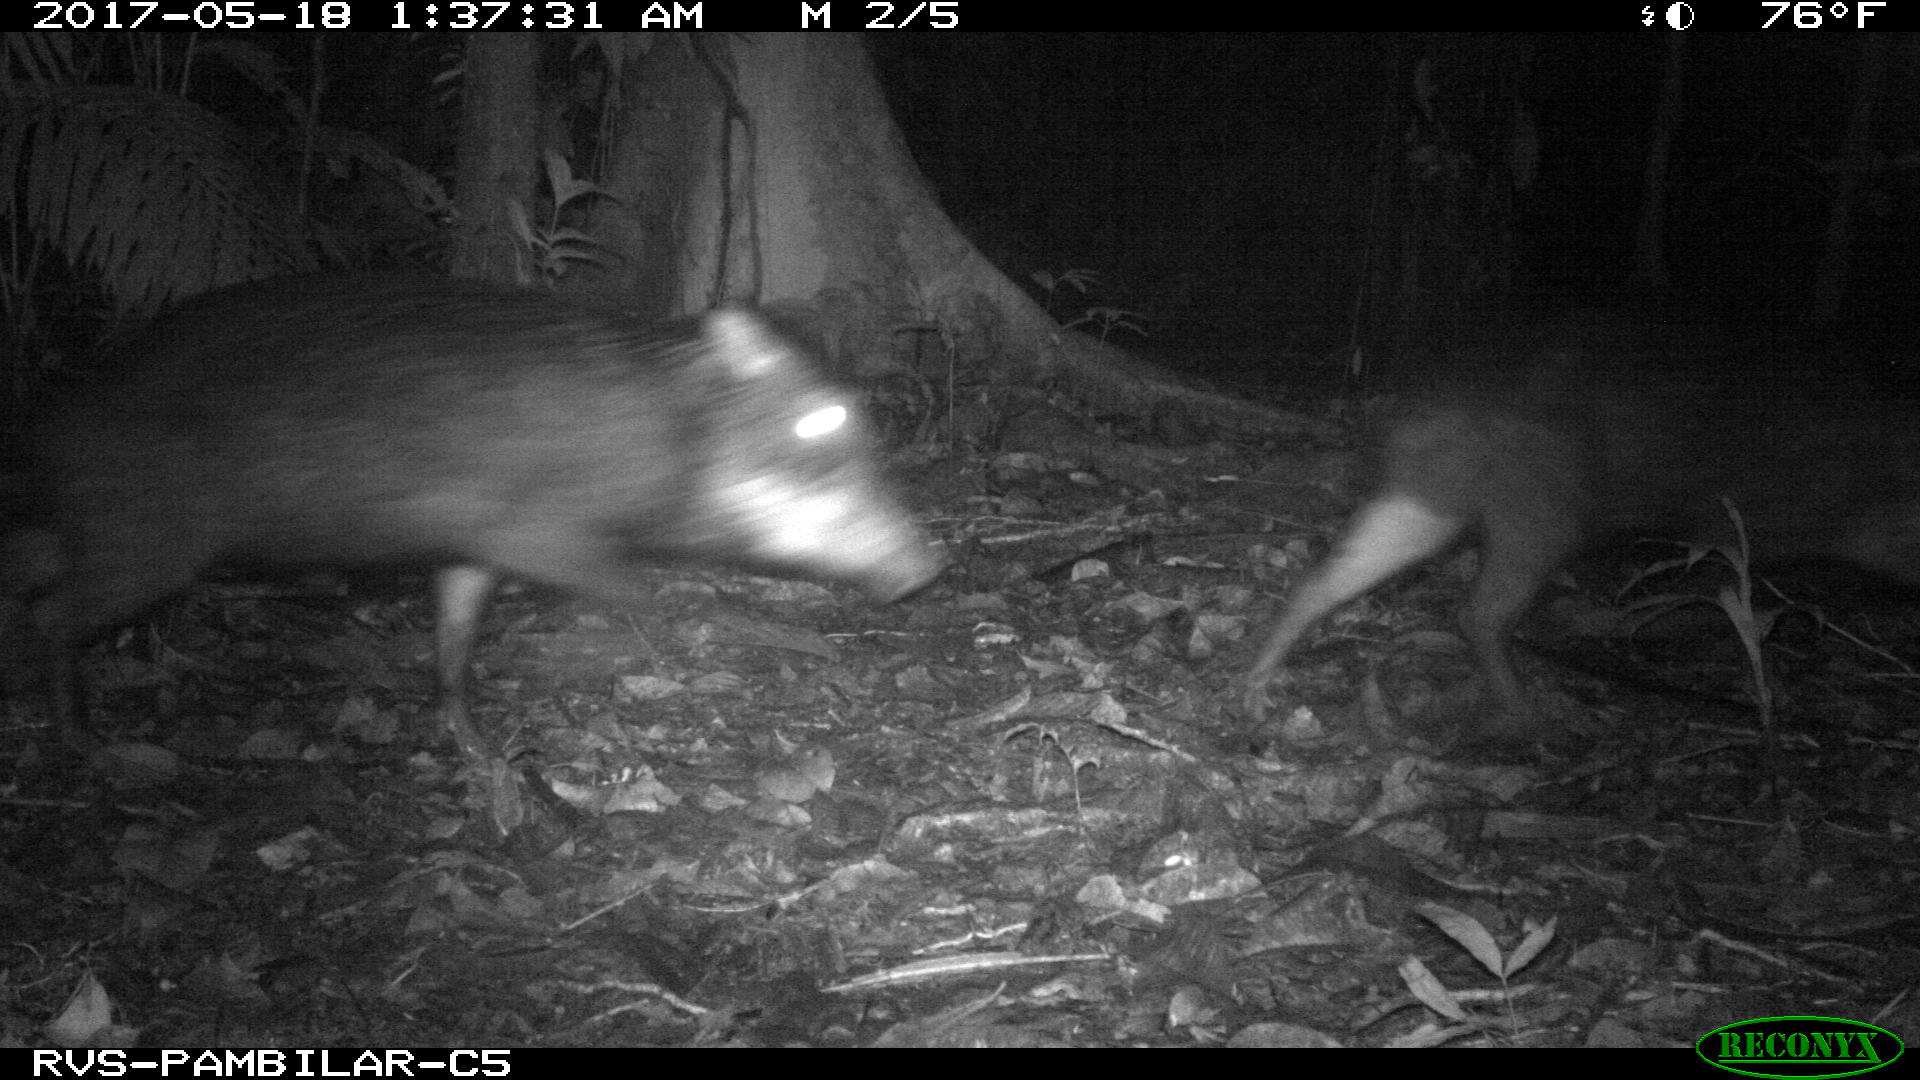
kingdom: Animalia
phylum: Chordata
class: Mammalia
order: Artiodactyla
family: Tayassuidae
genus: Tayassu
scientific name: Tayassu pecari
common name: White-lipped peccary
